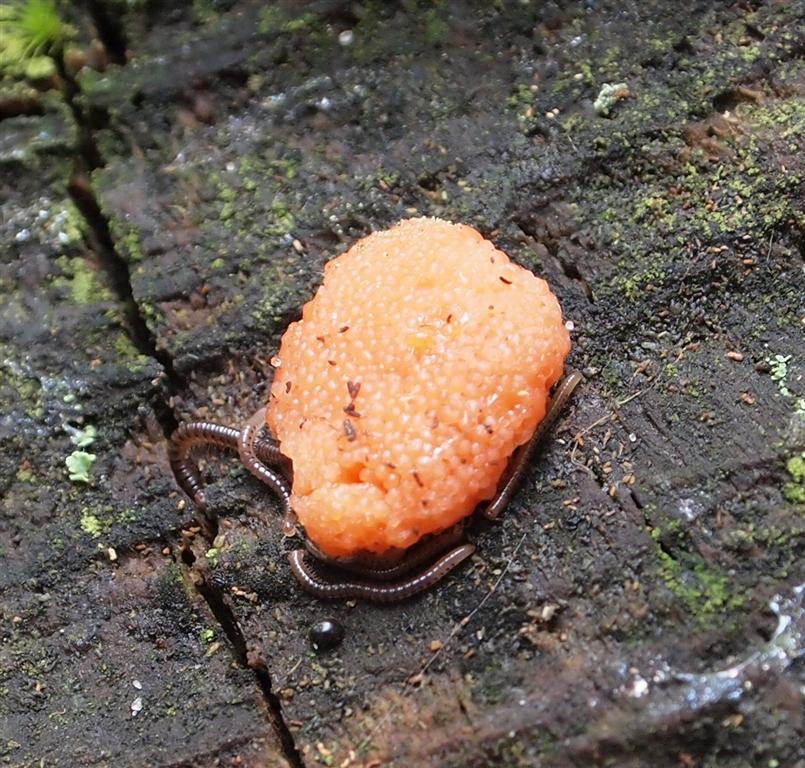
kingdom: Protozoa
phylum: Mycetozoa
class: Myxomycetes
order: Cribrariales
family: Tubiferaceae
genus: Tubifera
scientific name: Tubifera ferruginosa
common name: kanel-støvrør
